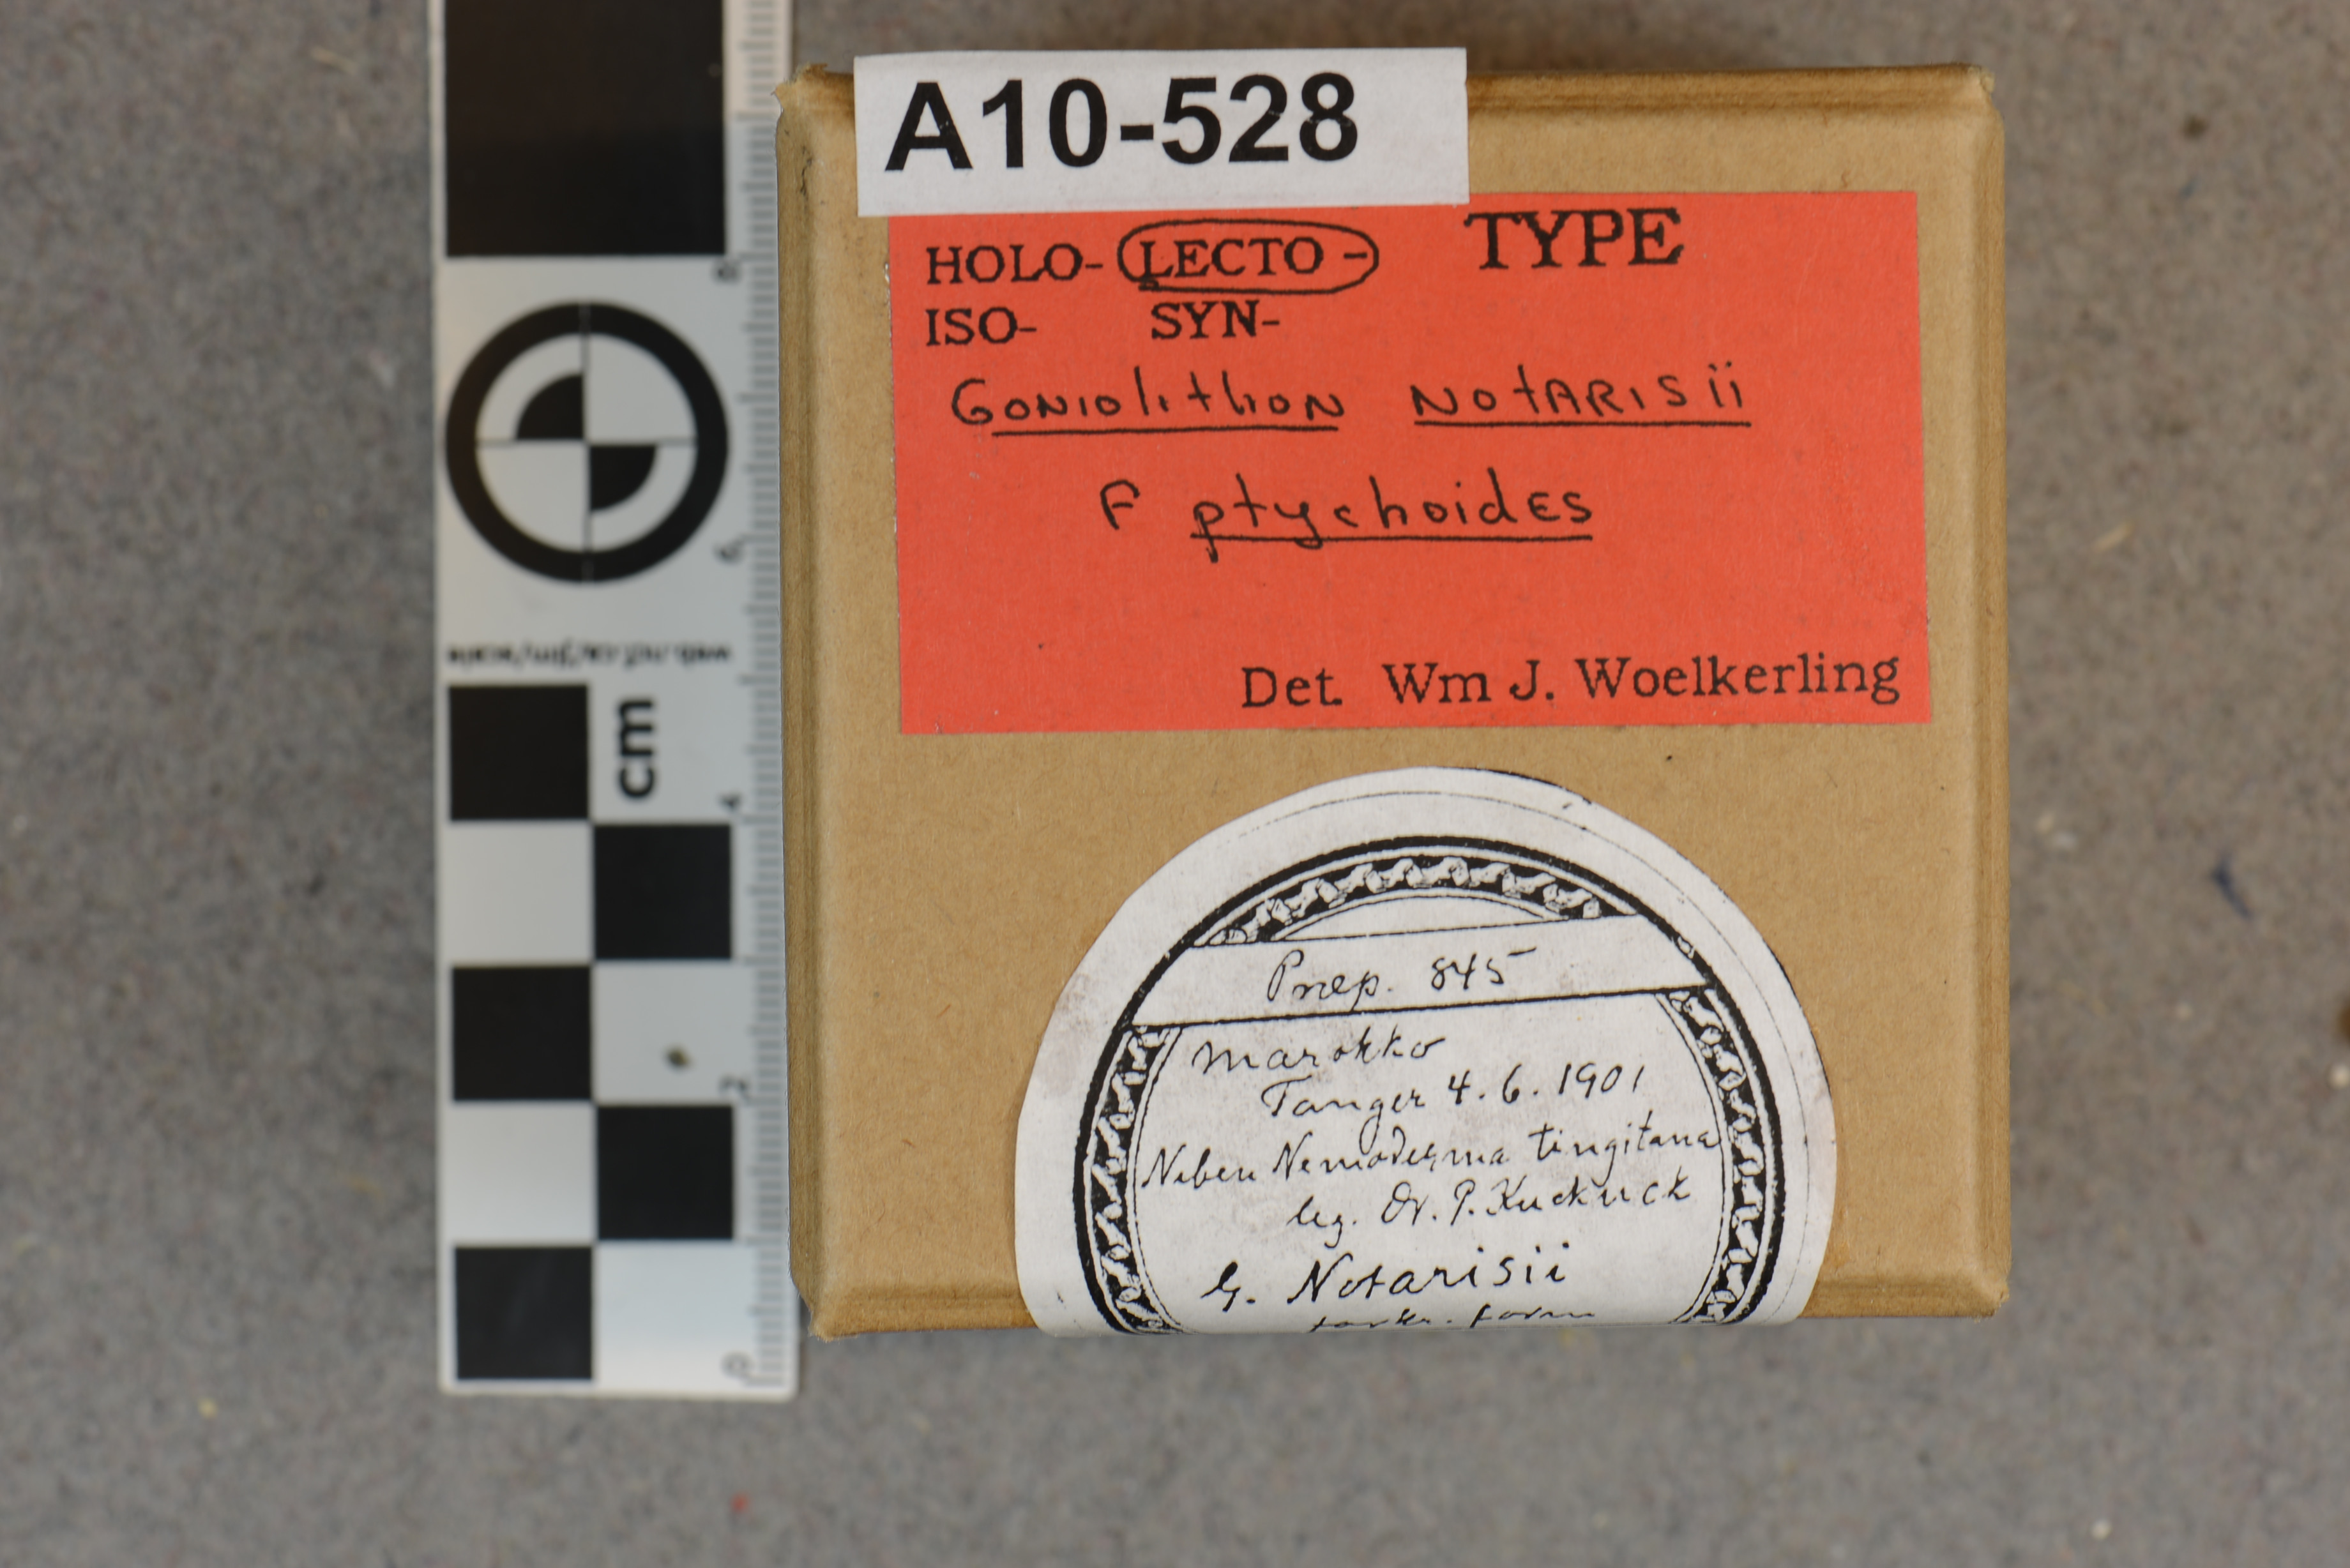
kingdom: Plantae
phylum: Rhodophyta
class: Florideophyceae
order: Corallinales
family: Spongitaceae
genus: Neogoniolithon
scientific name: Neogoniolithon brassica-florida
